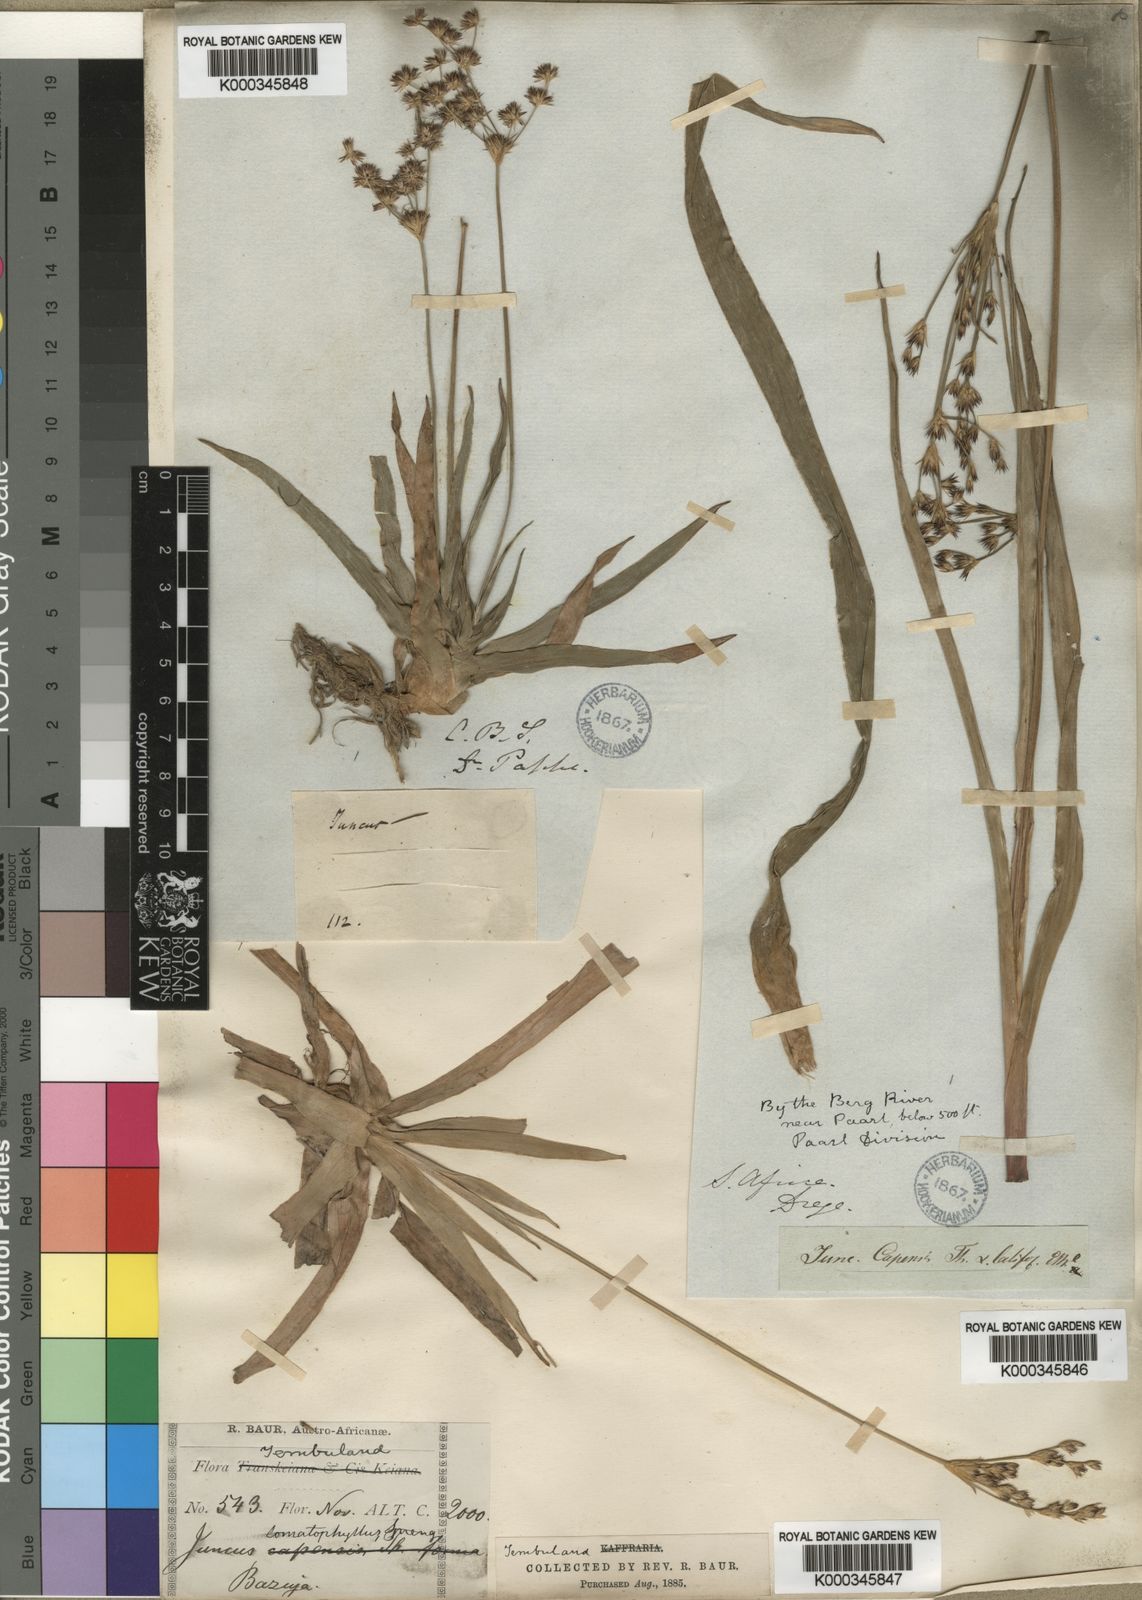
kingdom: Plantae
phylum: Tracheophyta
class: Liliopsida
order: Poales
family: Juncaceae
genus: Juncus
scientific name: Juncus lomatophyllus
